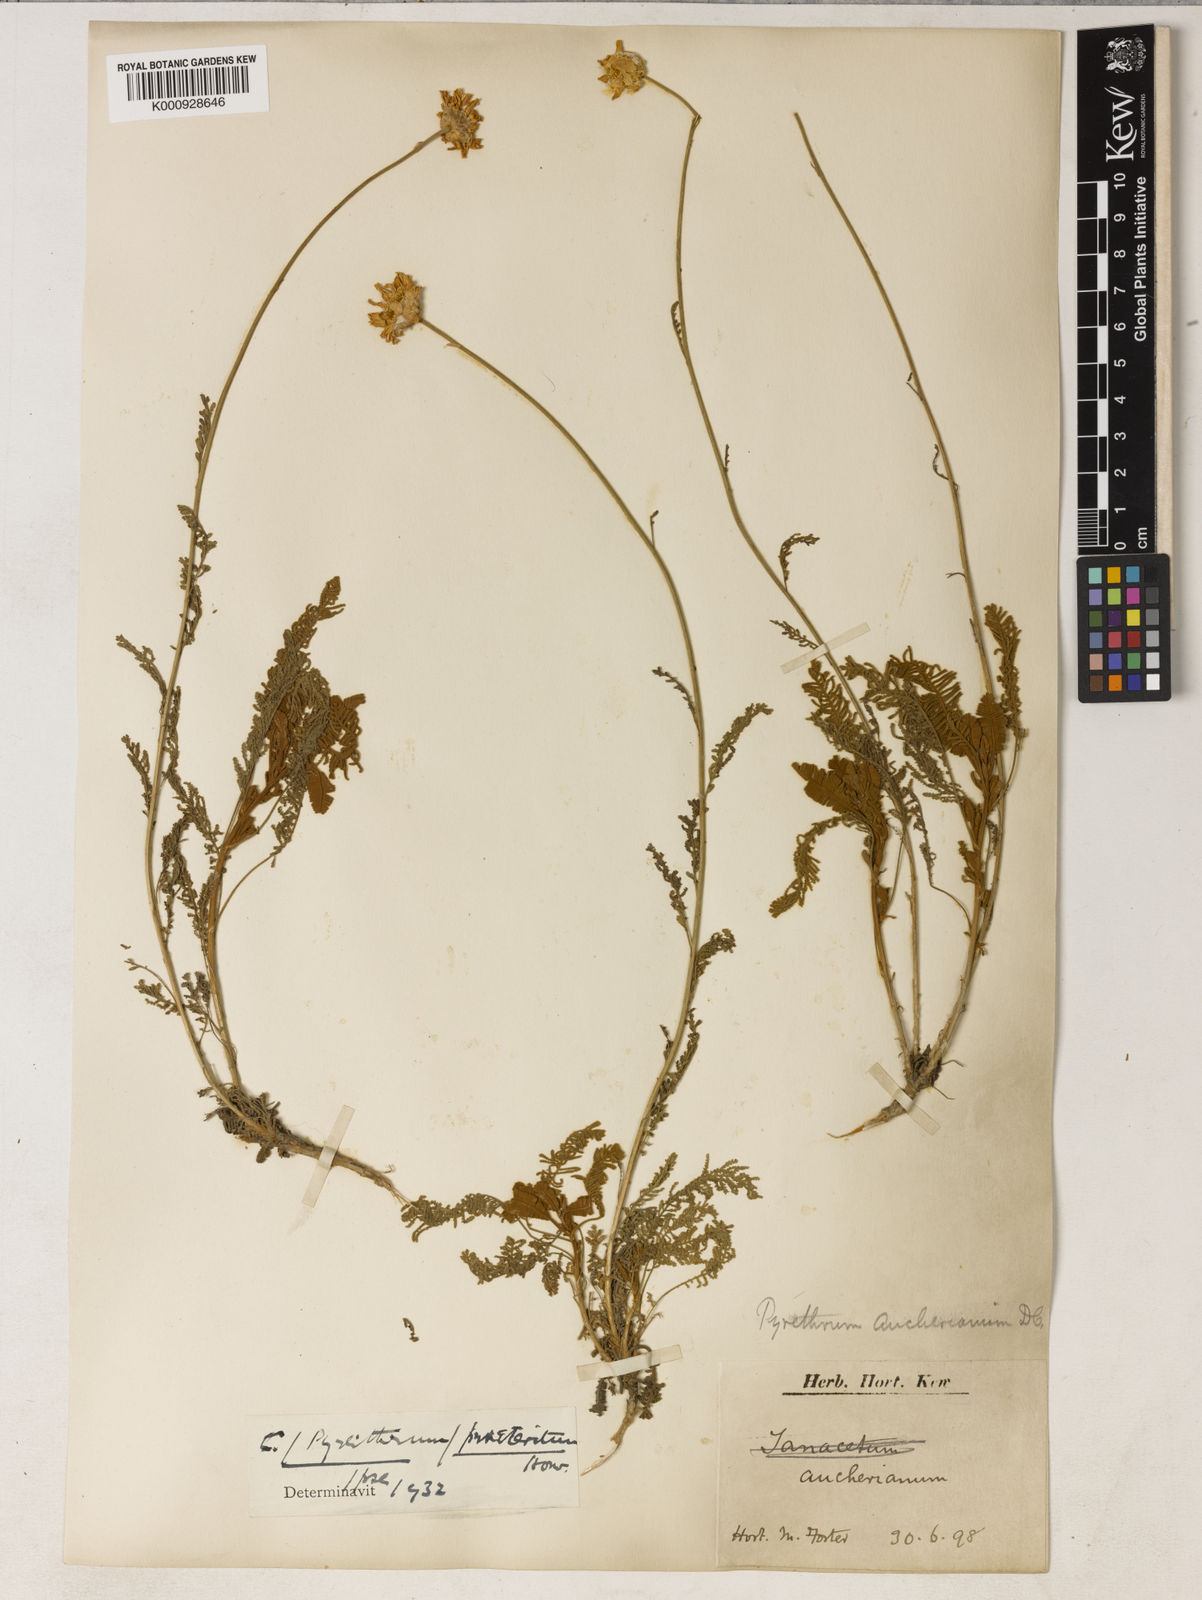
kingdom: Plantae
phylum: Tracheophyta
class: Magnoliopsida
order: Asterales
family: Asteraceae
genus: Tanacetum
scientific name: Tanacetum praeteritum
